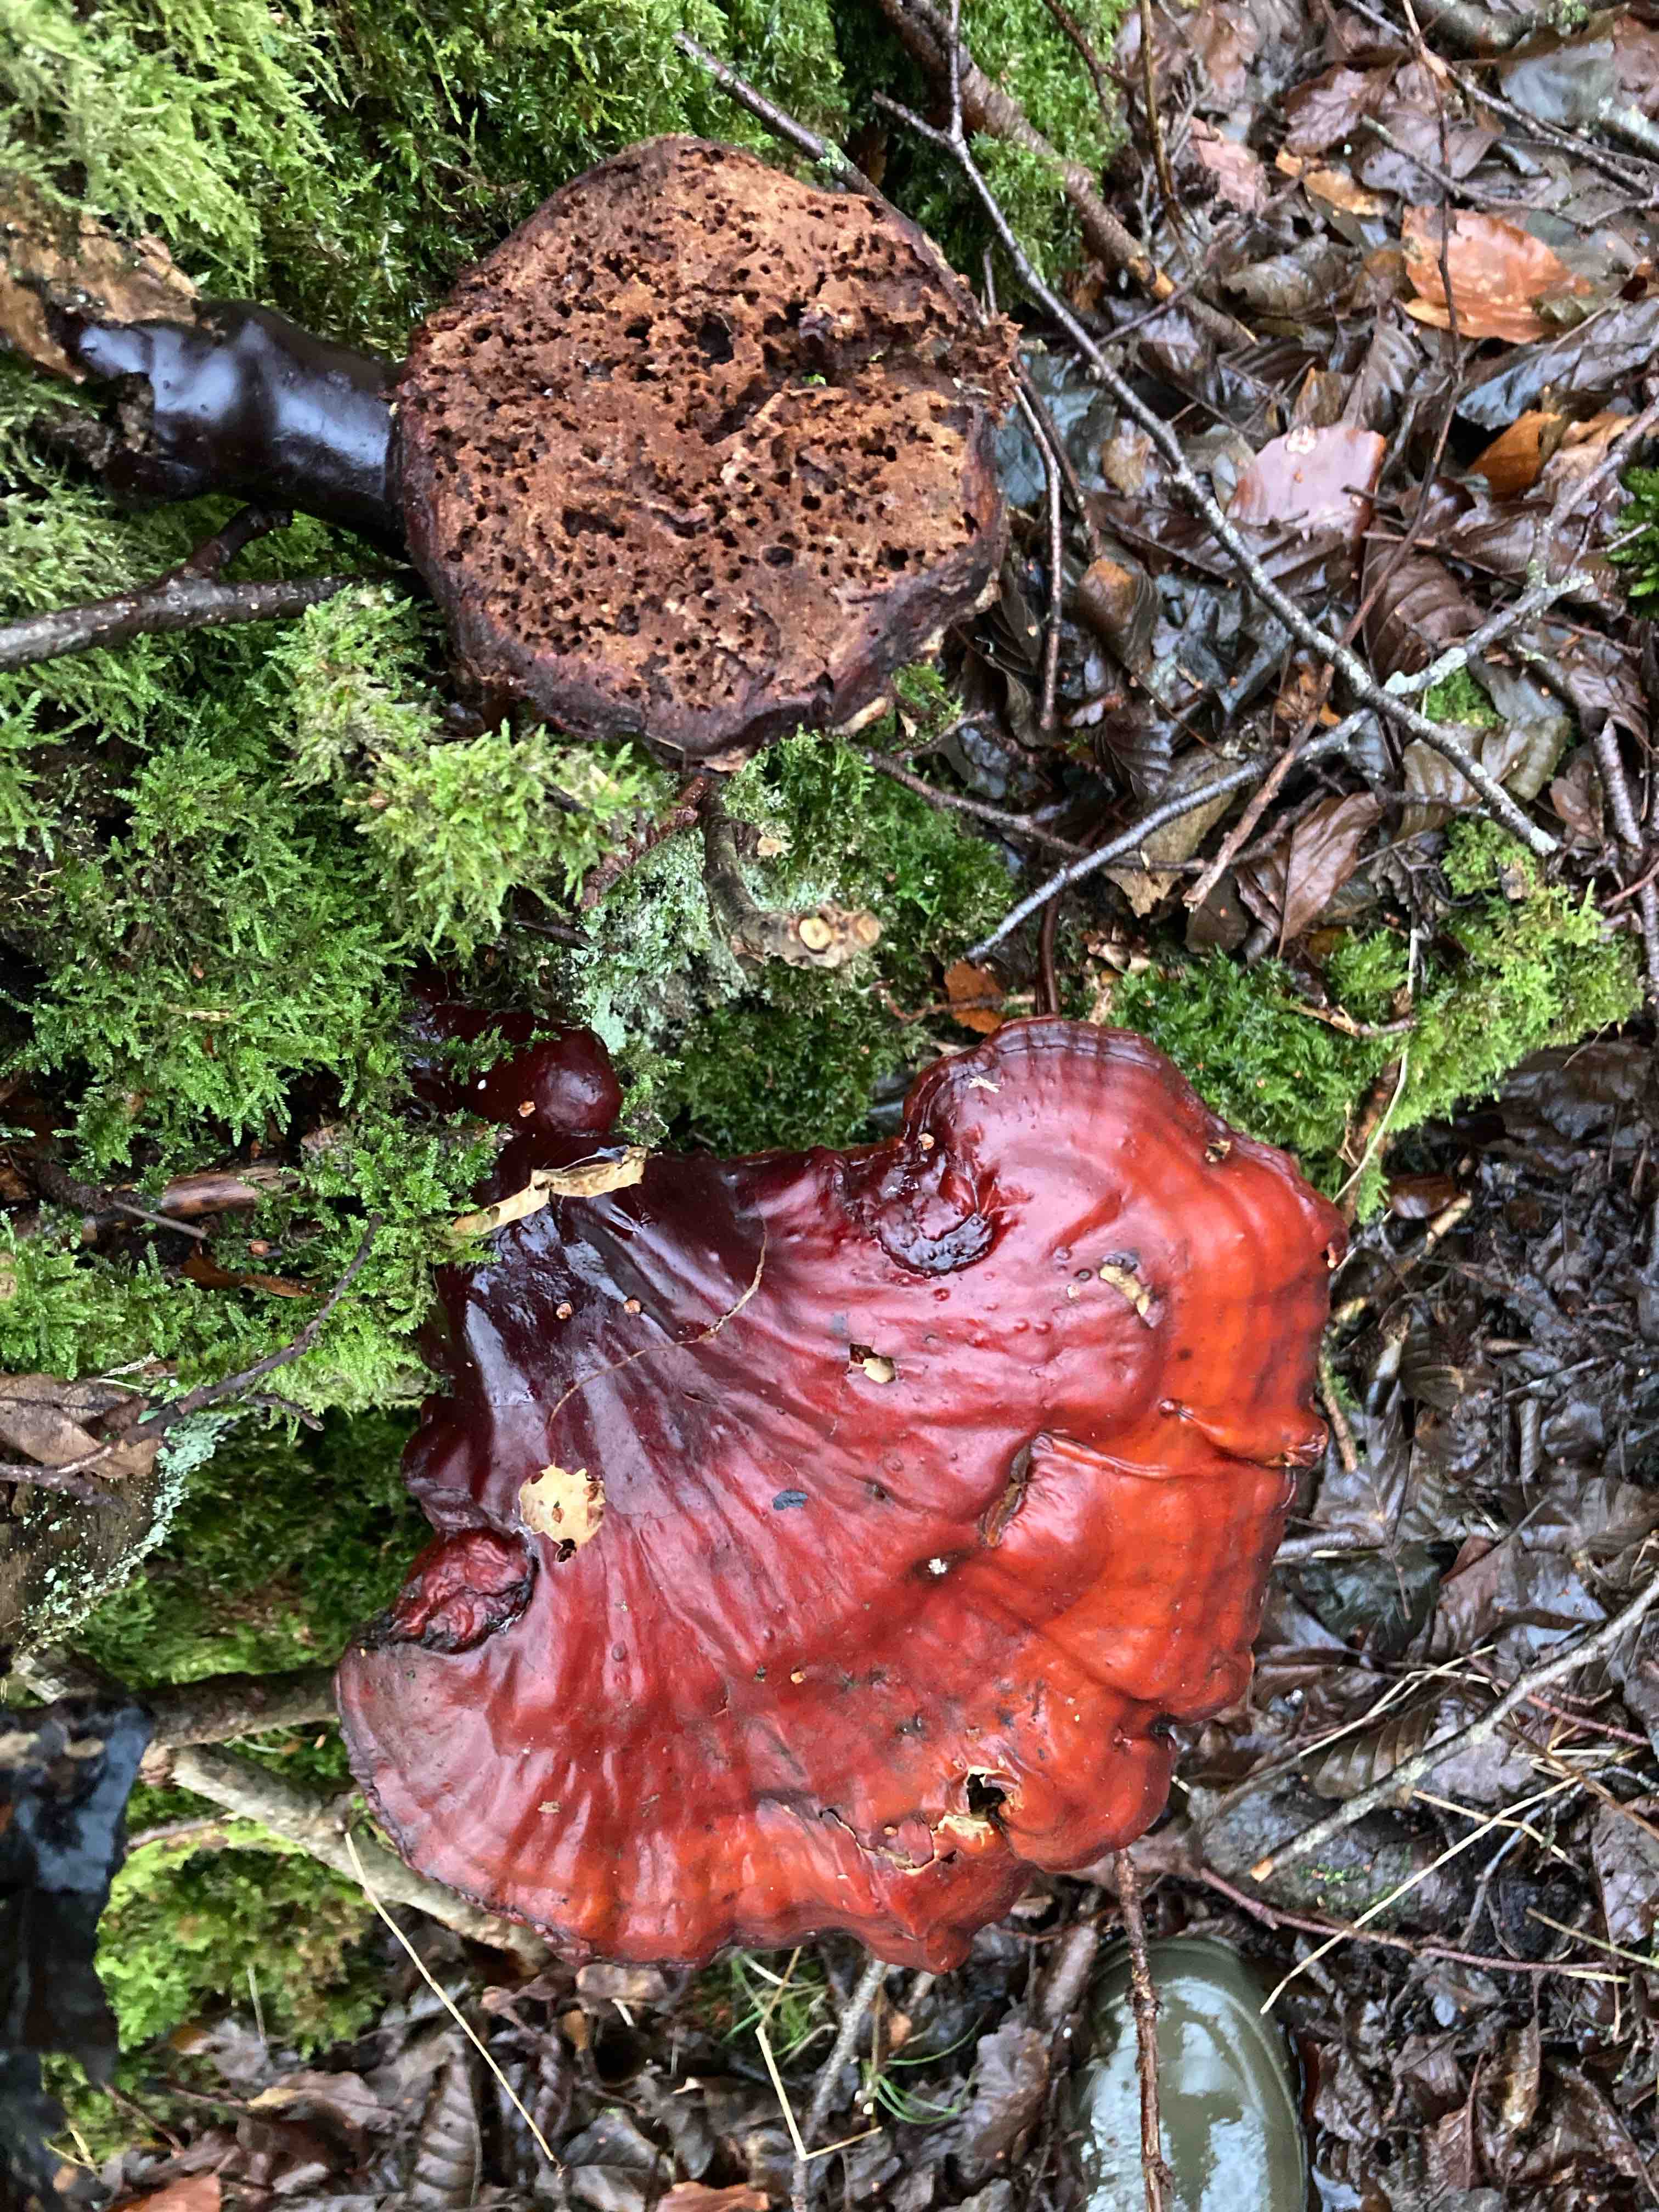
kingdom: Fungi
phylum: Basidiomycota
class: Agaricomycetes
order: Polyporales
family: Polyporaceae
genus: Ganoderma
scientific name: Ganoderma lucidum
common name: skinnende lakporesvamp
